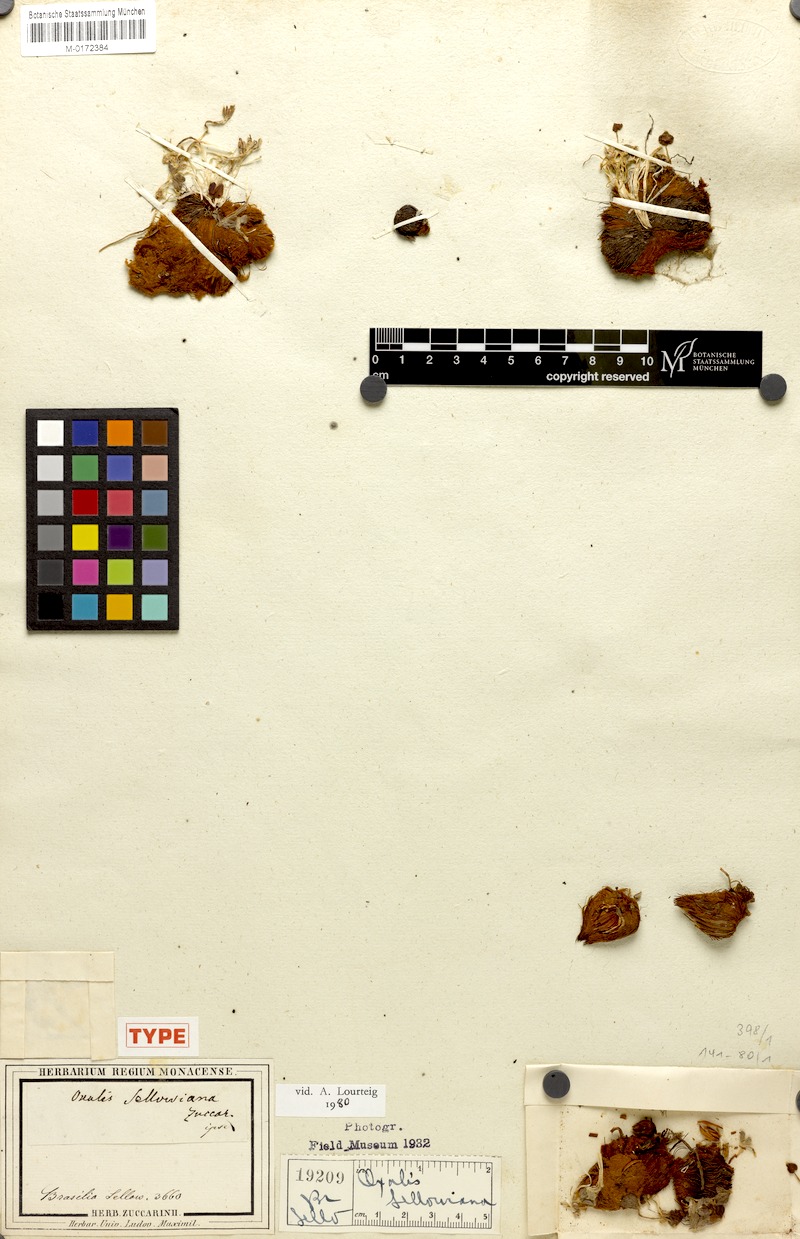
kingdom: Plantae
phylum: Tracheophyta
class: Magnoliopsida
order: Oxalidales
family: Oxalidaceae
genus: Oxalis
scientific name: Oxalis sellowiana
